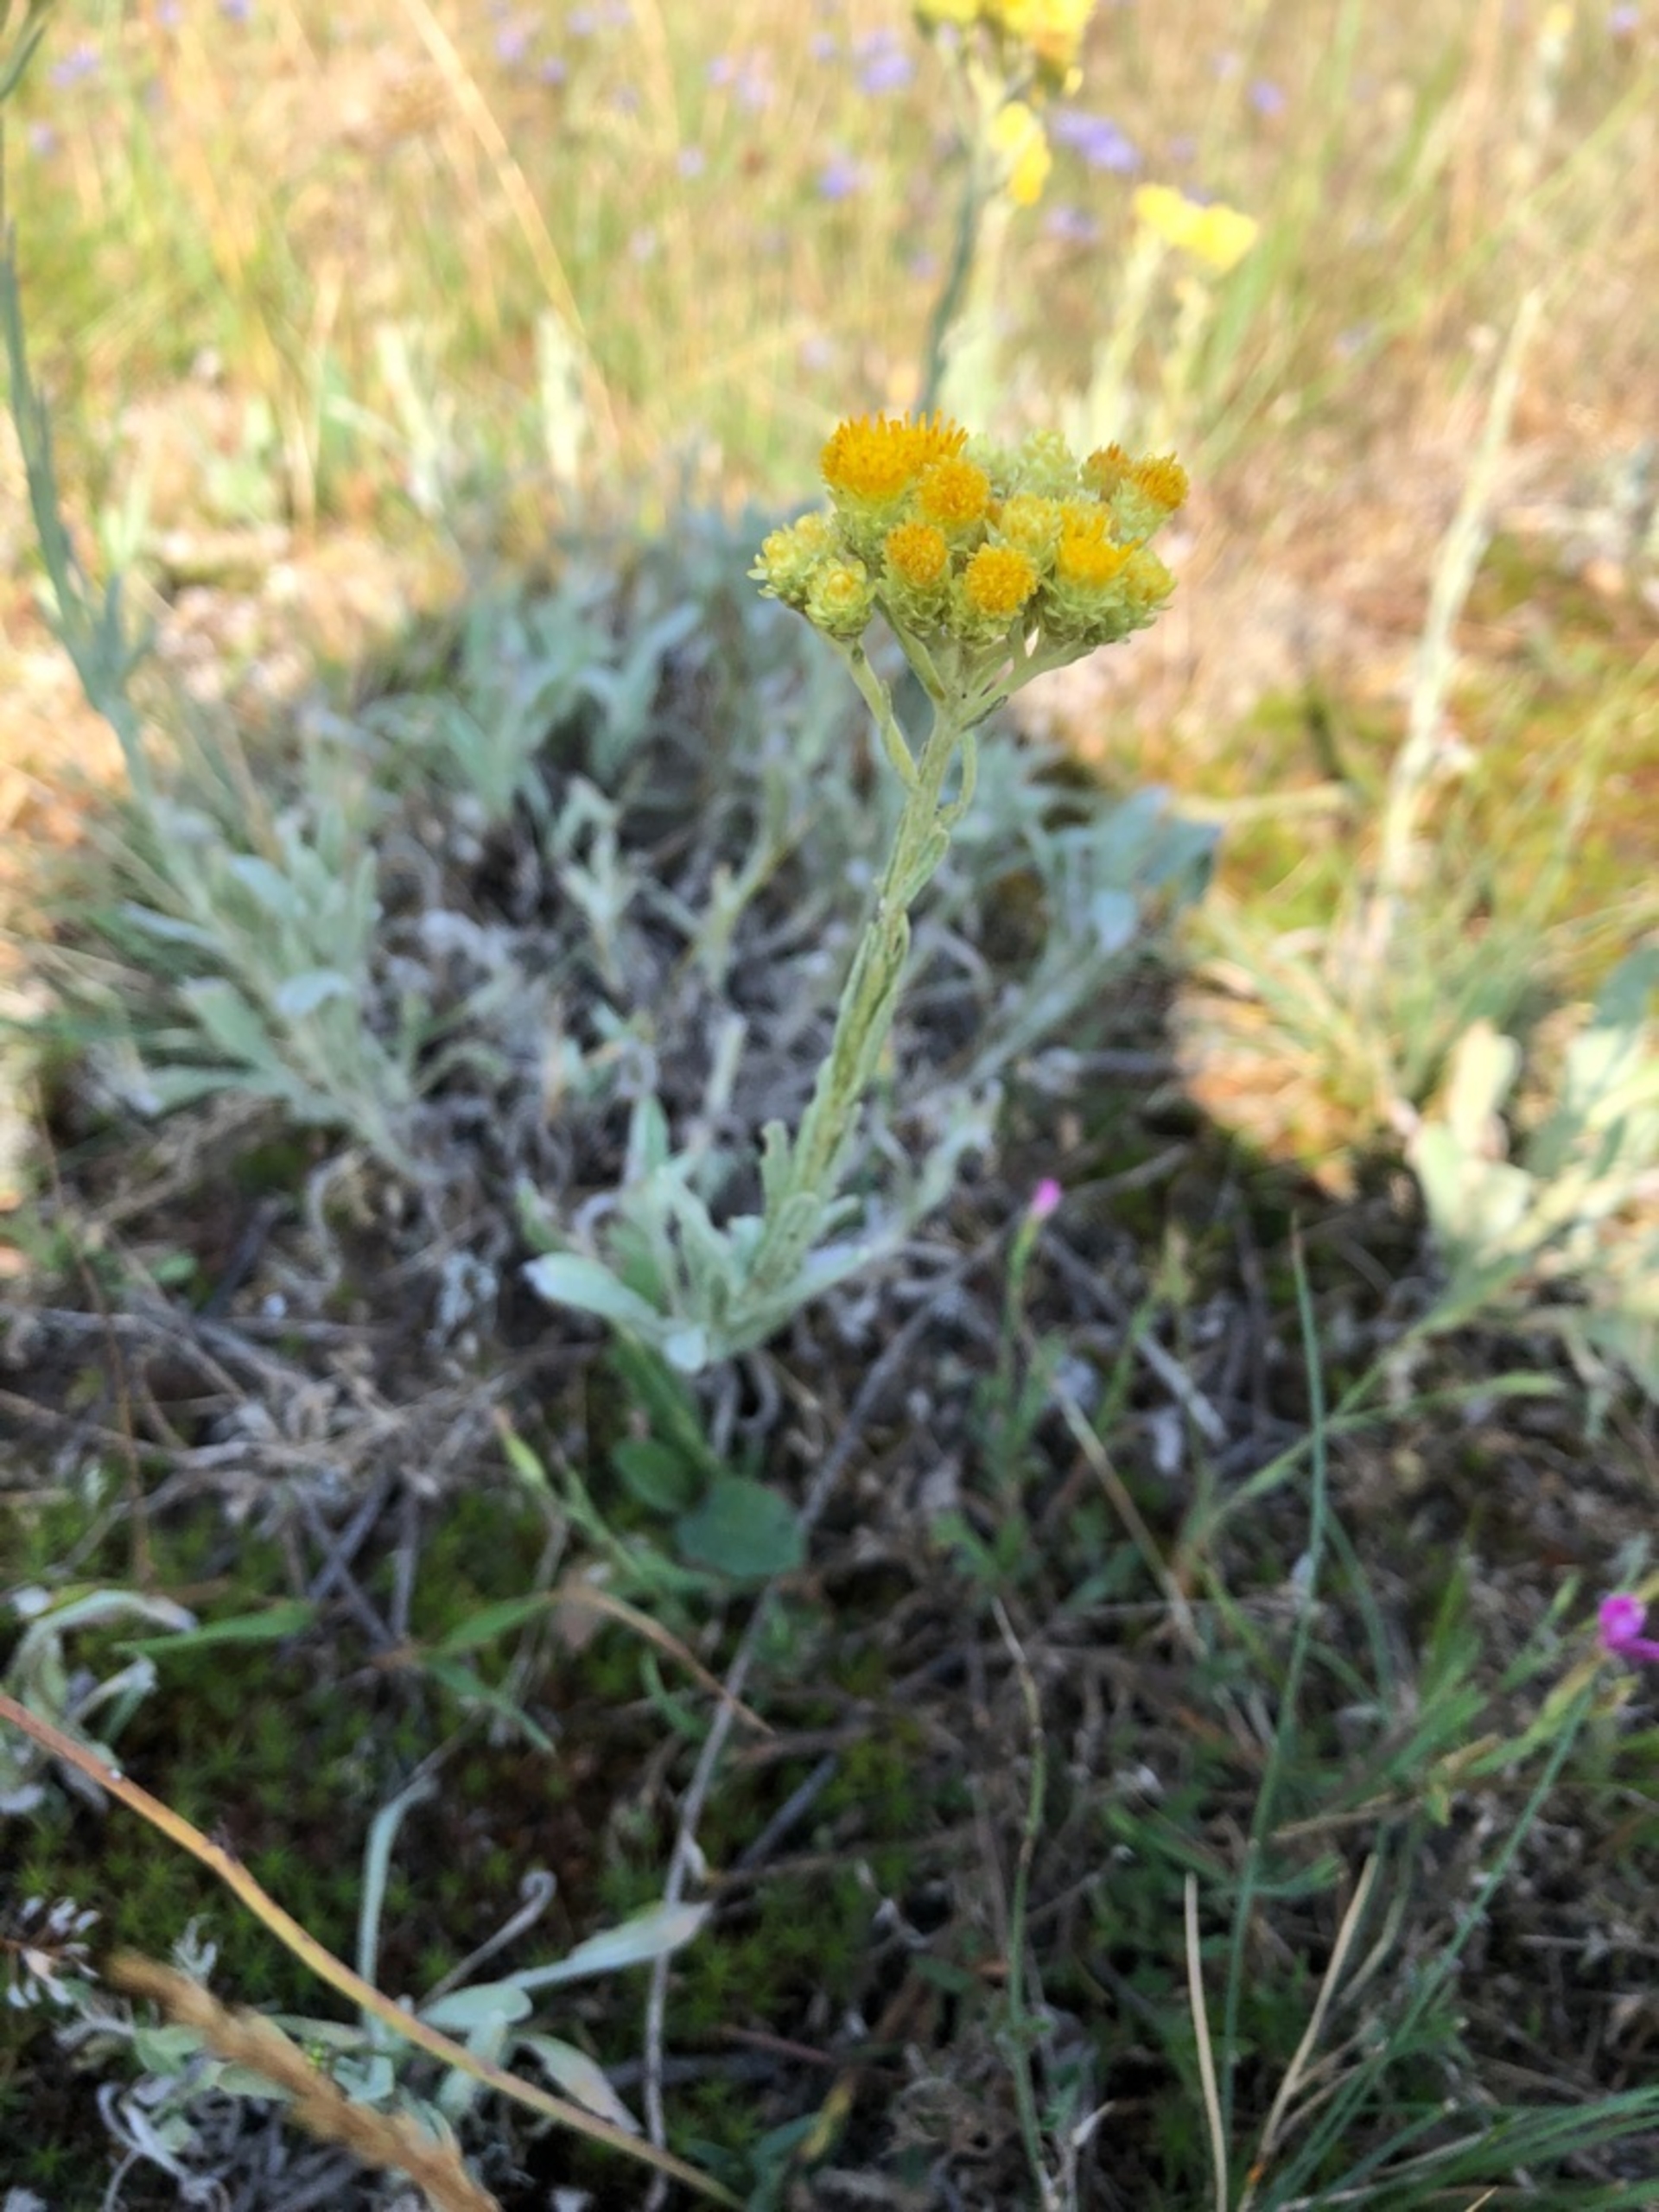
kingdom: Plantae
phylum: Tracheophyta
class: Magnoliopsida
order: Asterales
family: Asteraceae
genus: Helichrysum
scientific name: Helichrysum arenarium
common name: Gul evighedsblomst
